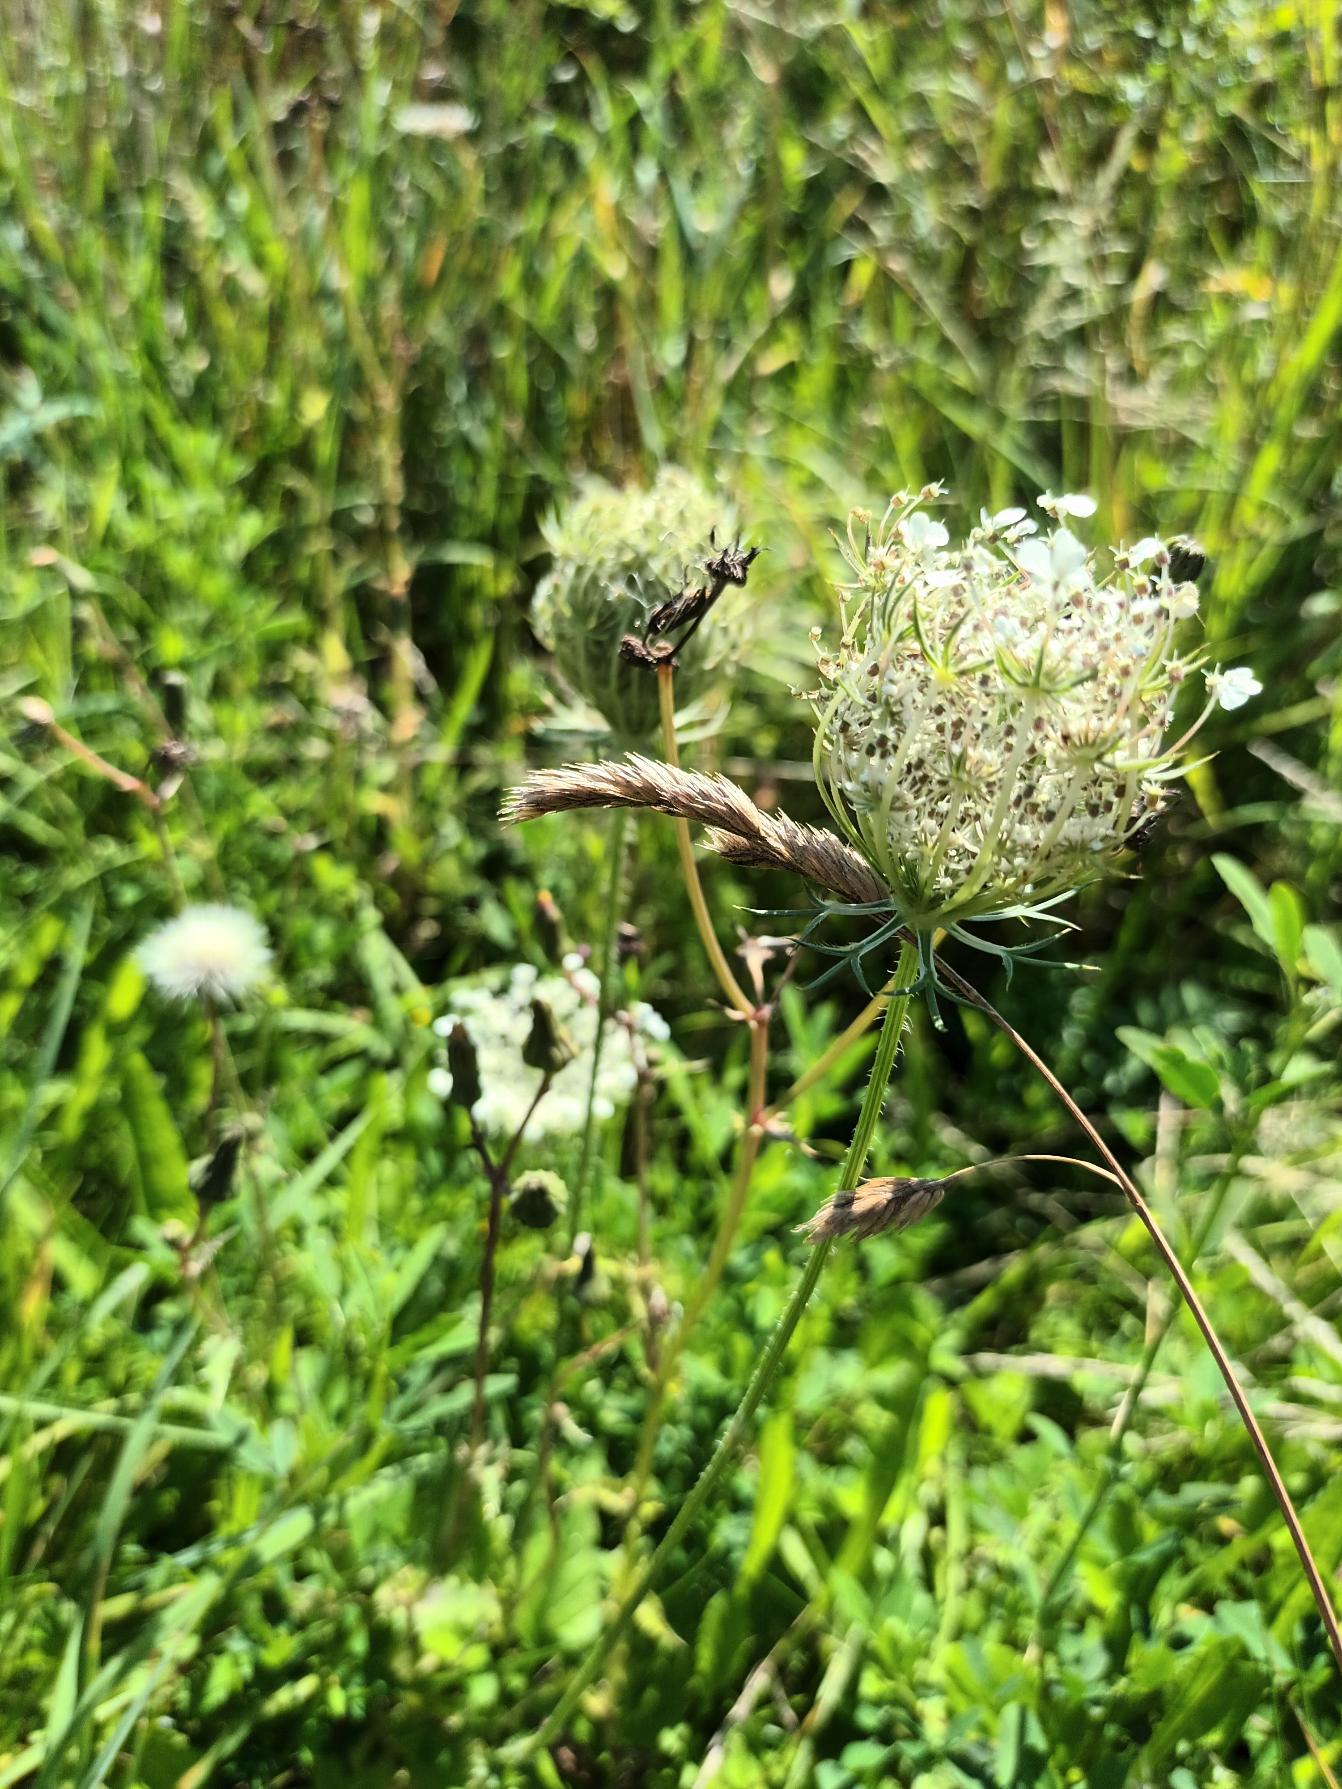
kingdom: Plantae
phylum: Tracheophyta
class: Magnoliopsida
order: Apiales
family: Apiaceae
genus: Daucus
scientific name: Daucus carota
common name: Gulerod
